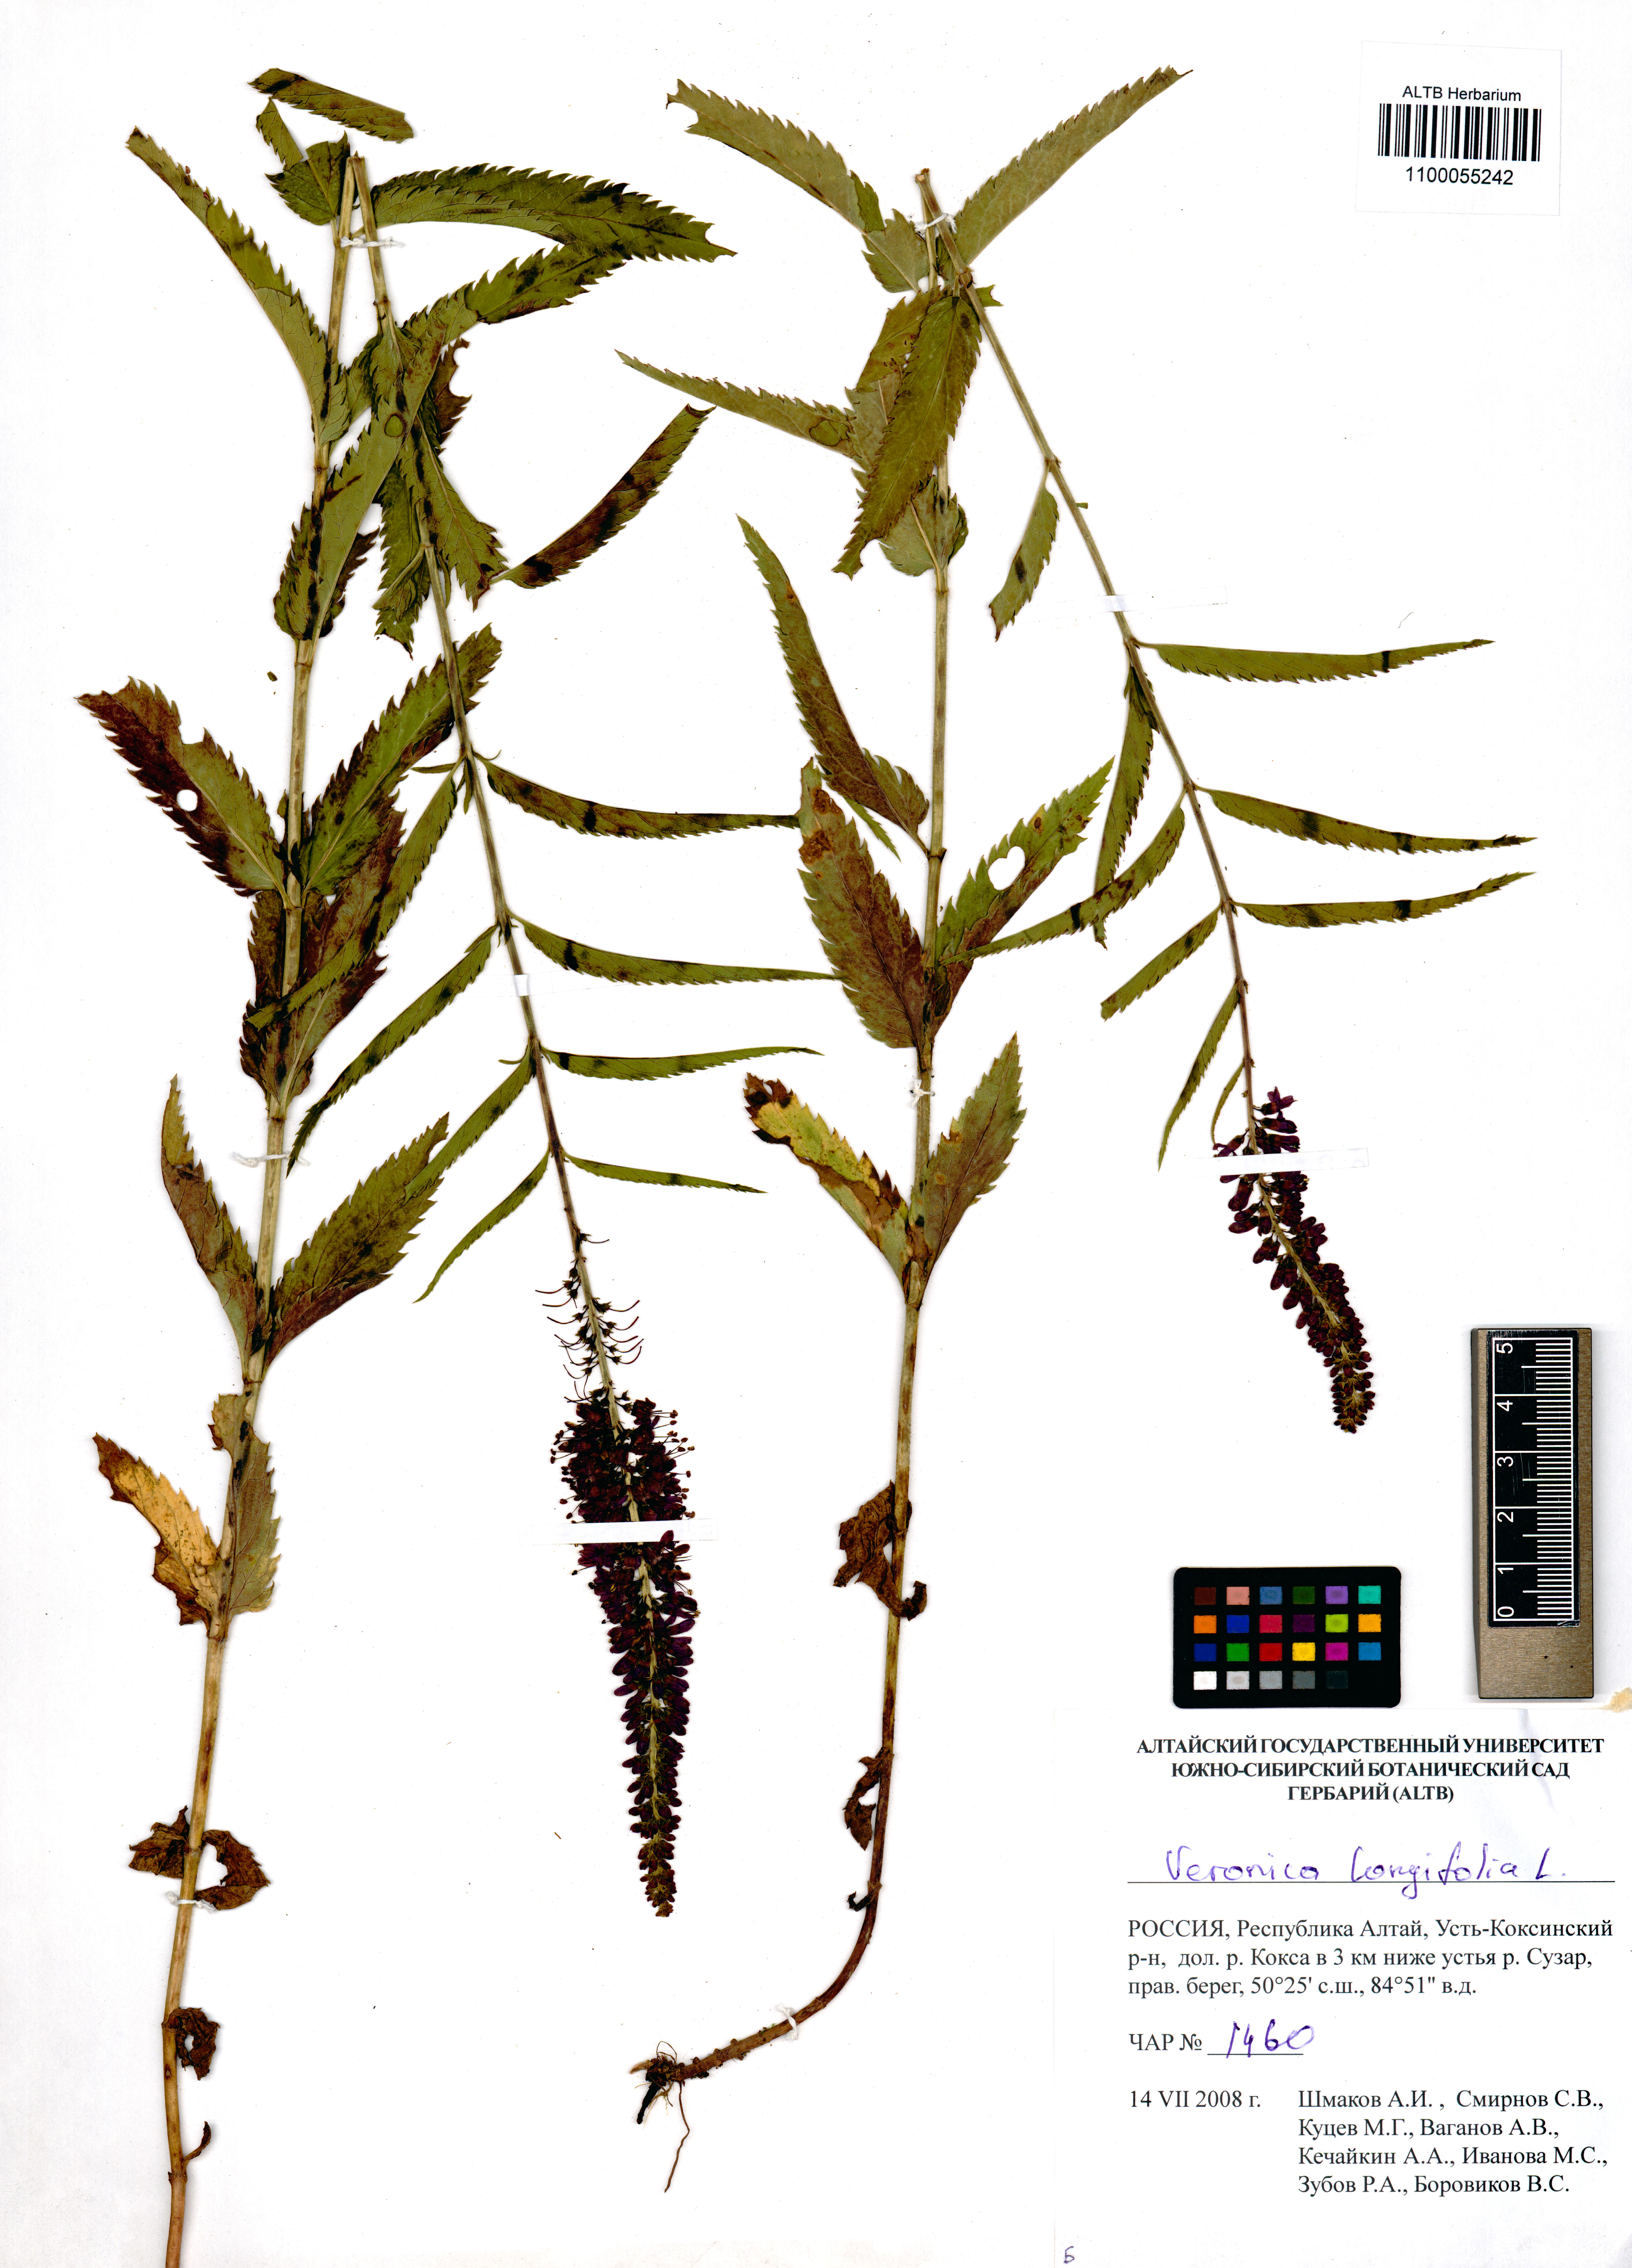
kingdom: Plantae
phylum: Tracheophyta
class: Magnoliopsida
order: Lamiales
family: Plantaginaceae
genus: Veronica
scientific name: Veronica longifolia
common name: Garden speedwell
